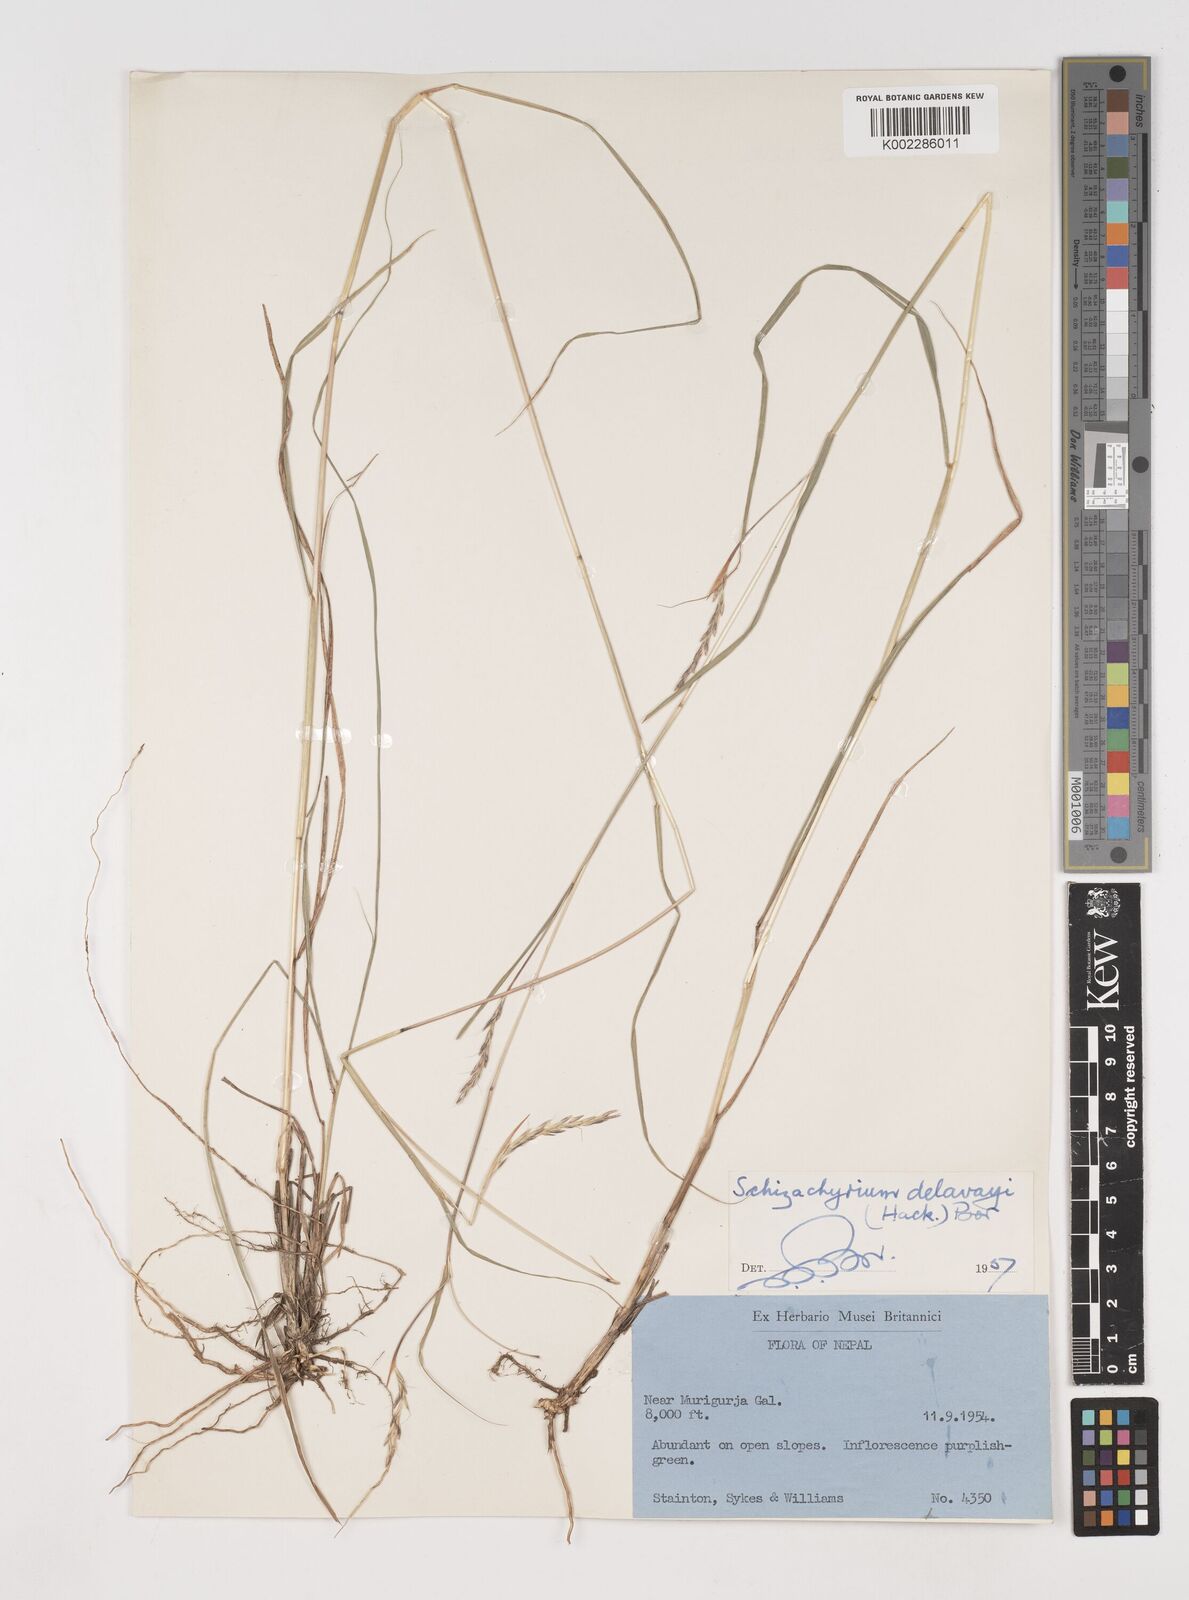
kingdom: Plantae
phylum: Tracheophyta
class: Liliopsida
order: Poales
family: Poaceae
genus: Schizachyrium
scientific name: Schizachyrium delavayi
